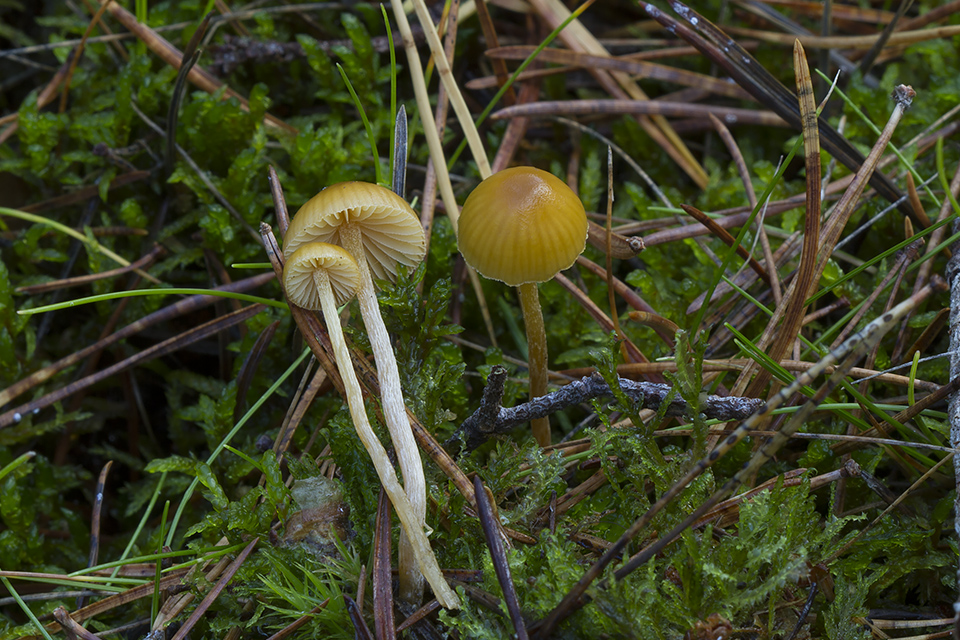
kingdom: Fungi
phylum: Basidiomycota
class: Agaricomycetes
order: Agaricales
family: Hymenogastraceae
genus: Galerina
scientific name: Galerina pumila
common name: honninggul hjelmhat
